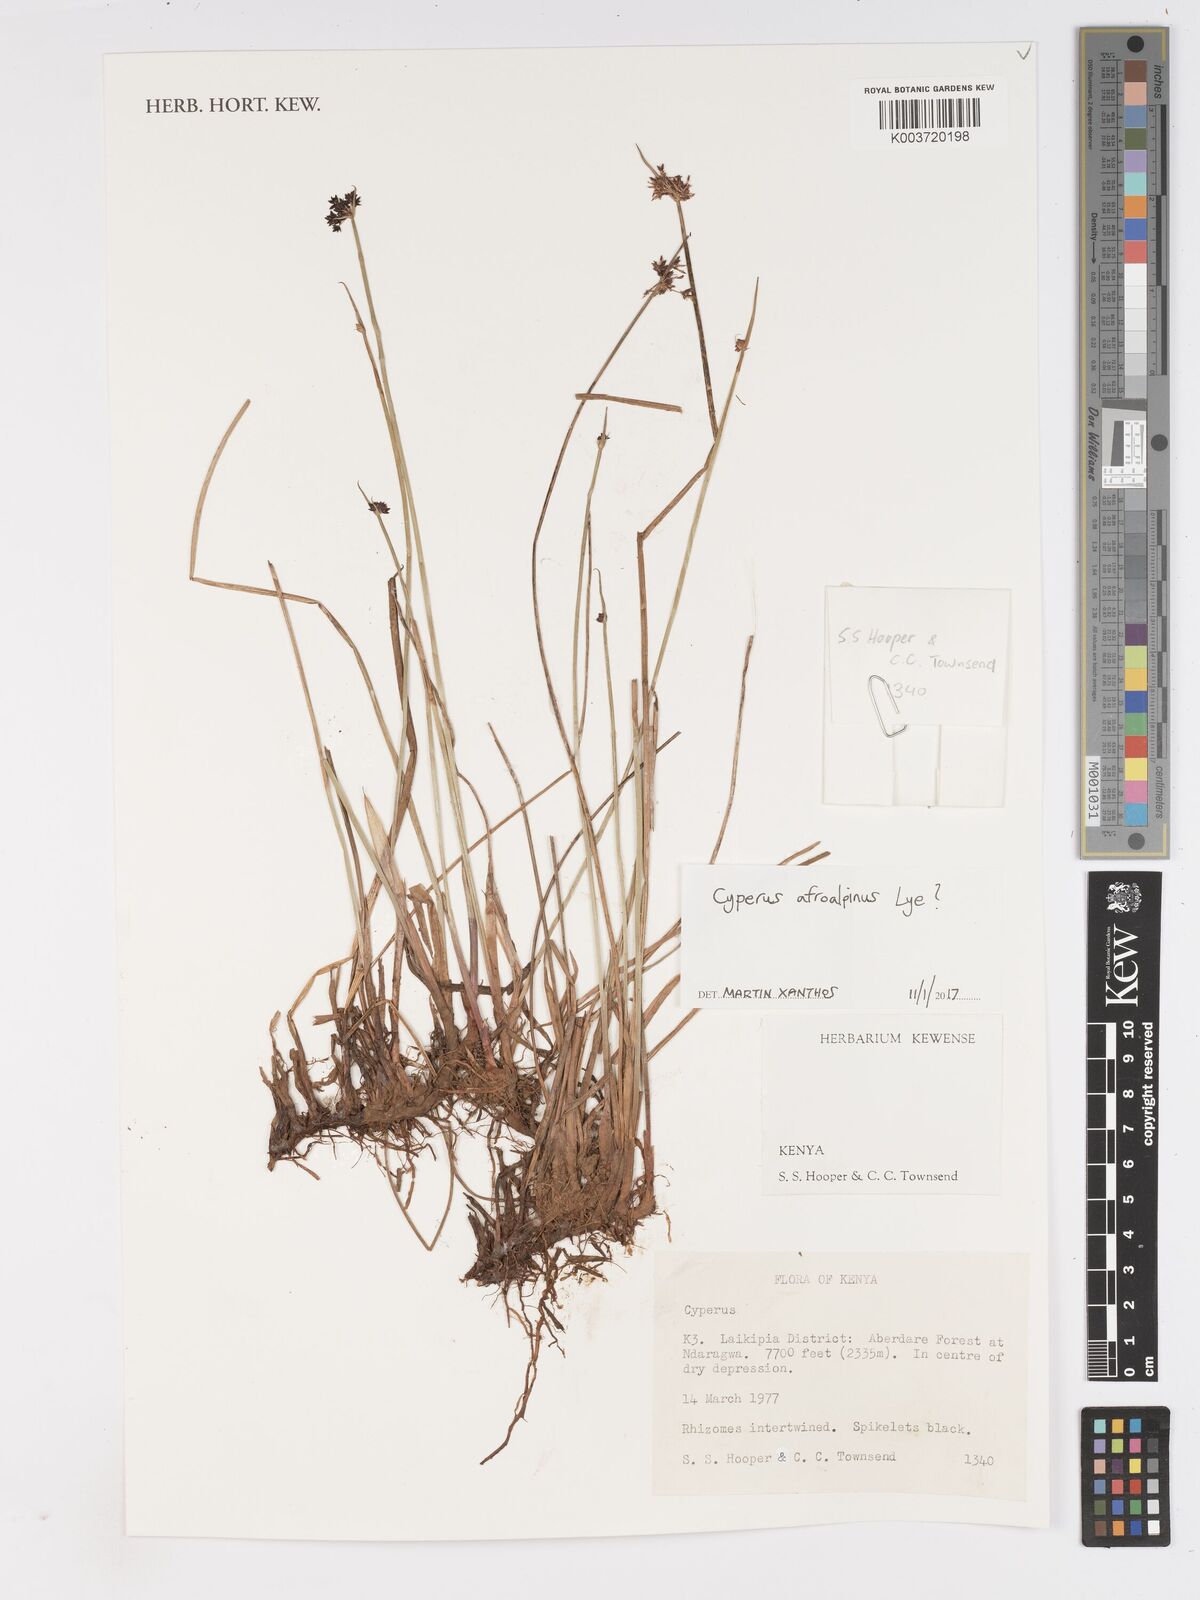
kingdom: Plantae
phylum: Tracheophyta
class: Liliopsida
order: Poales
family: Cyperaceae
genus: Cyperus
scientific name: Cyperus afroalpinus
